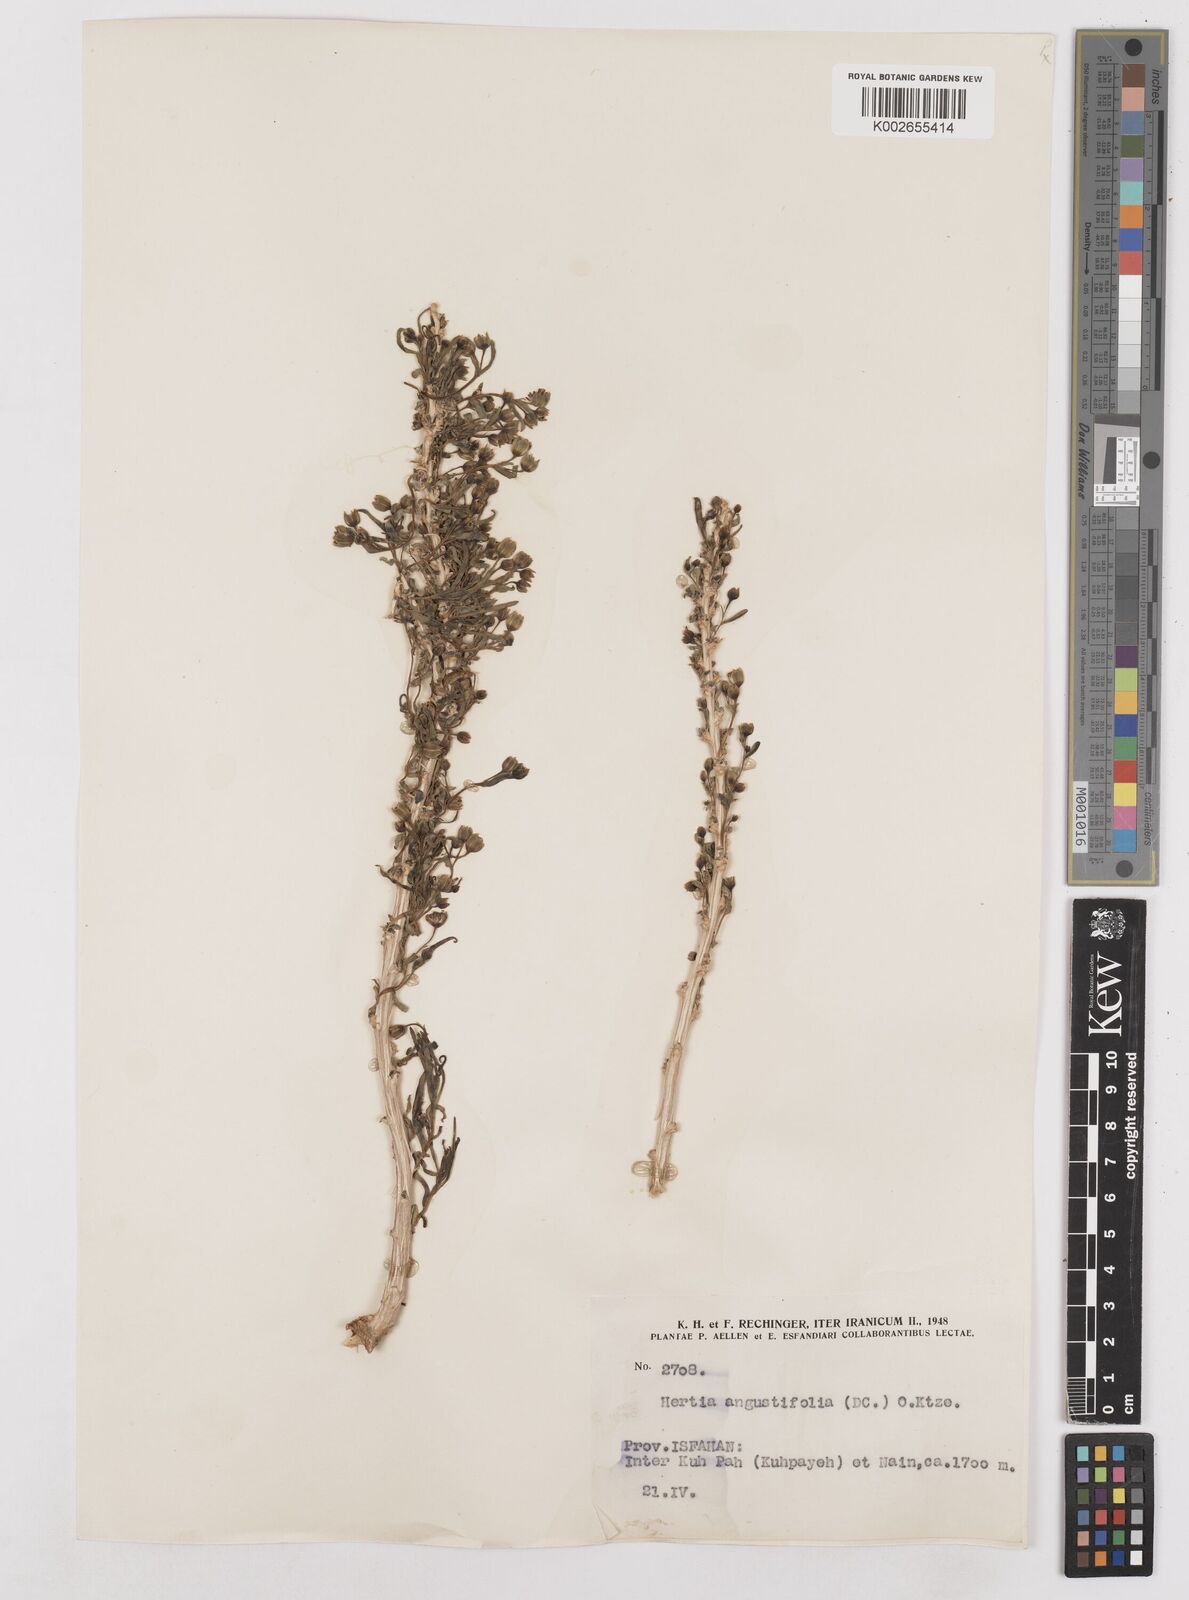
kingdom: Plantae
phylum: Tracheophyta
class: Magnoliopsida
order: Asterales
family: Asteraceae
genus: Hertia
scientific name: Hertia angustifolia
